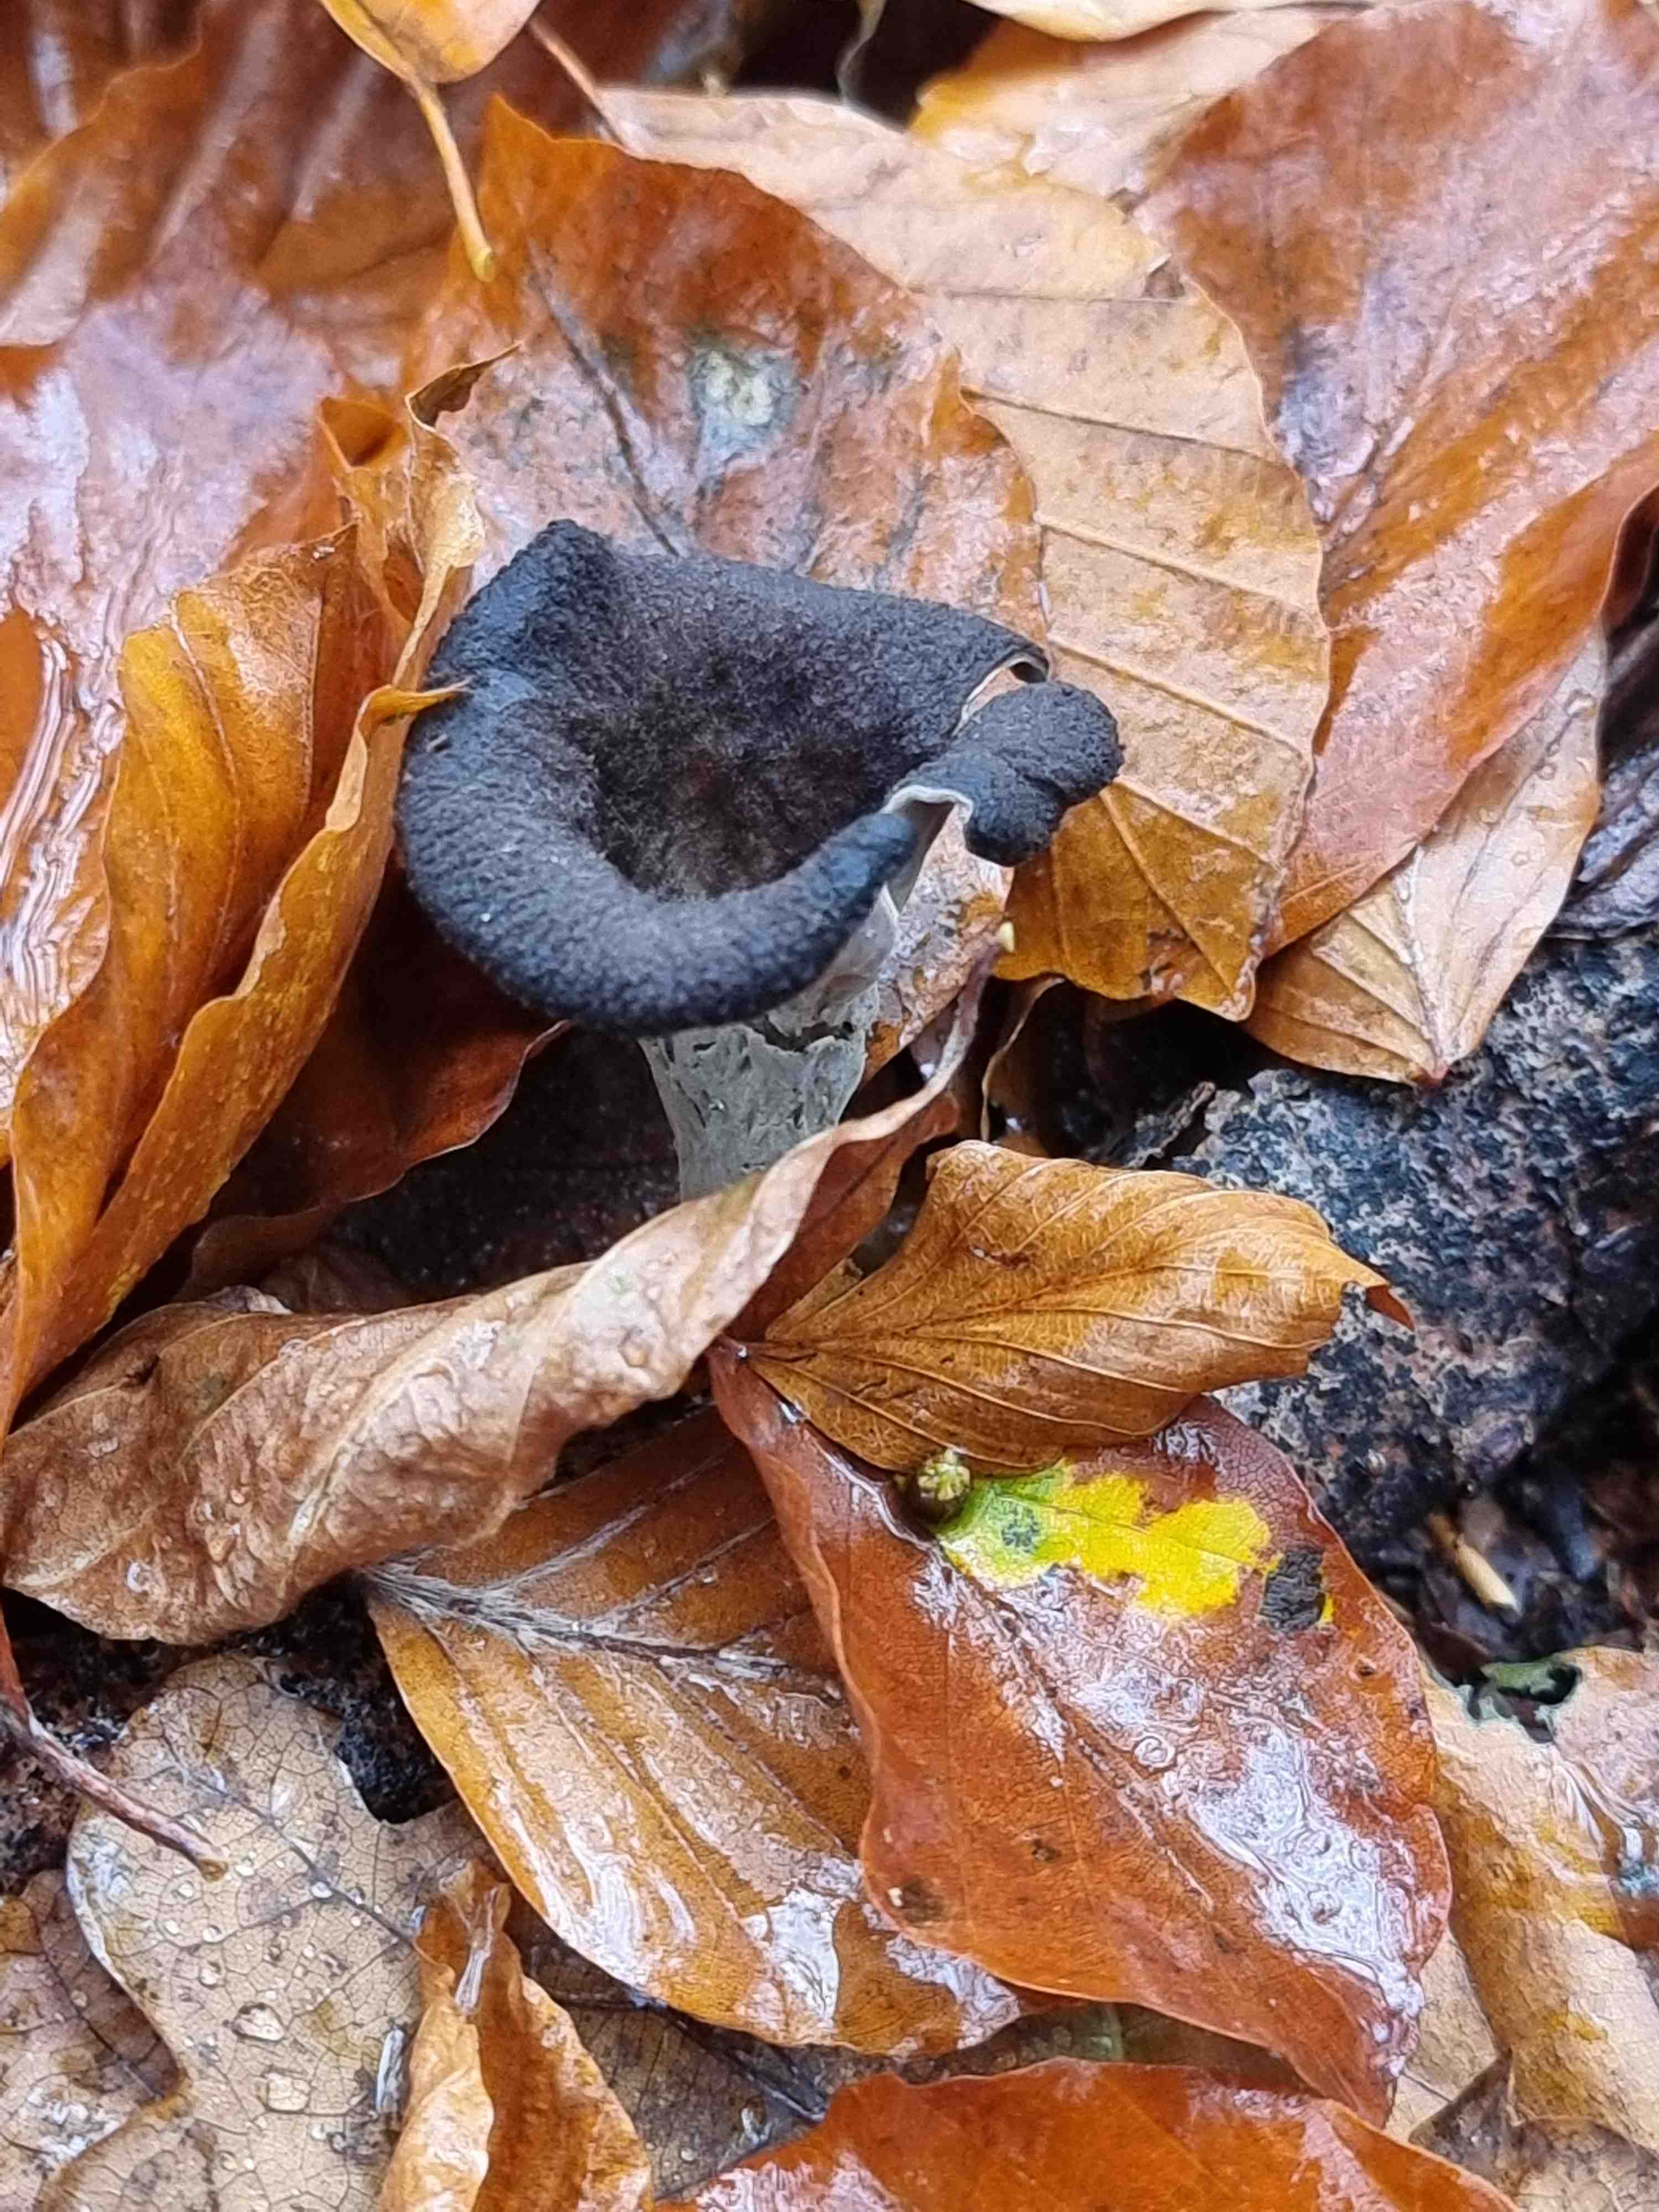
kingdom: Fungi
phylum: Basidiomycota
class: Agaricomycetes
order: Cantharellales
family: Hydnaceae
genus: Craterellus
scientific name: Craterellus cornucopioides
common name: trompetsvamp
